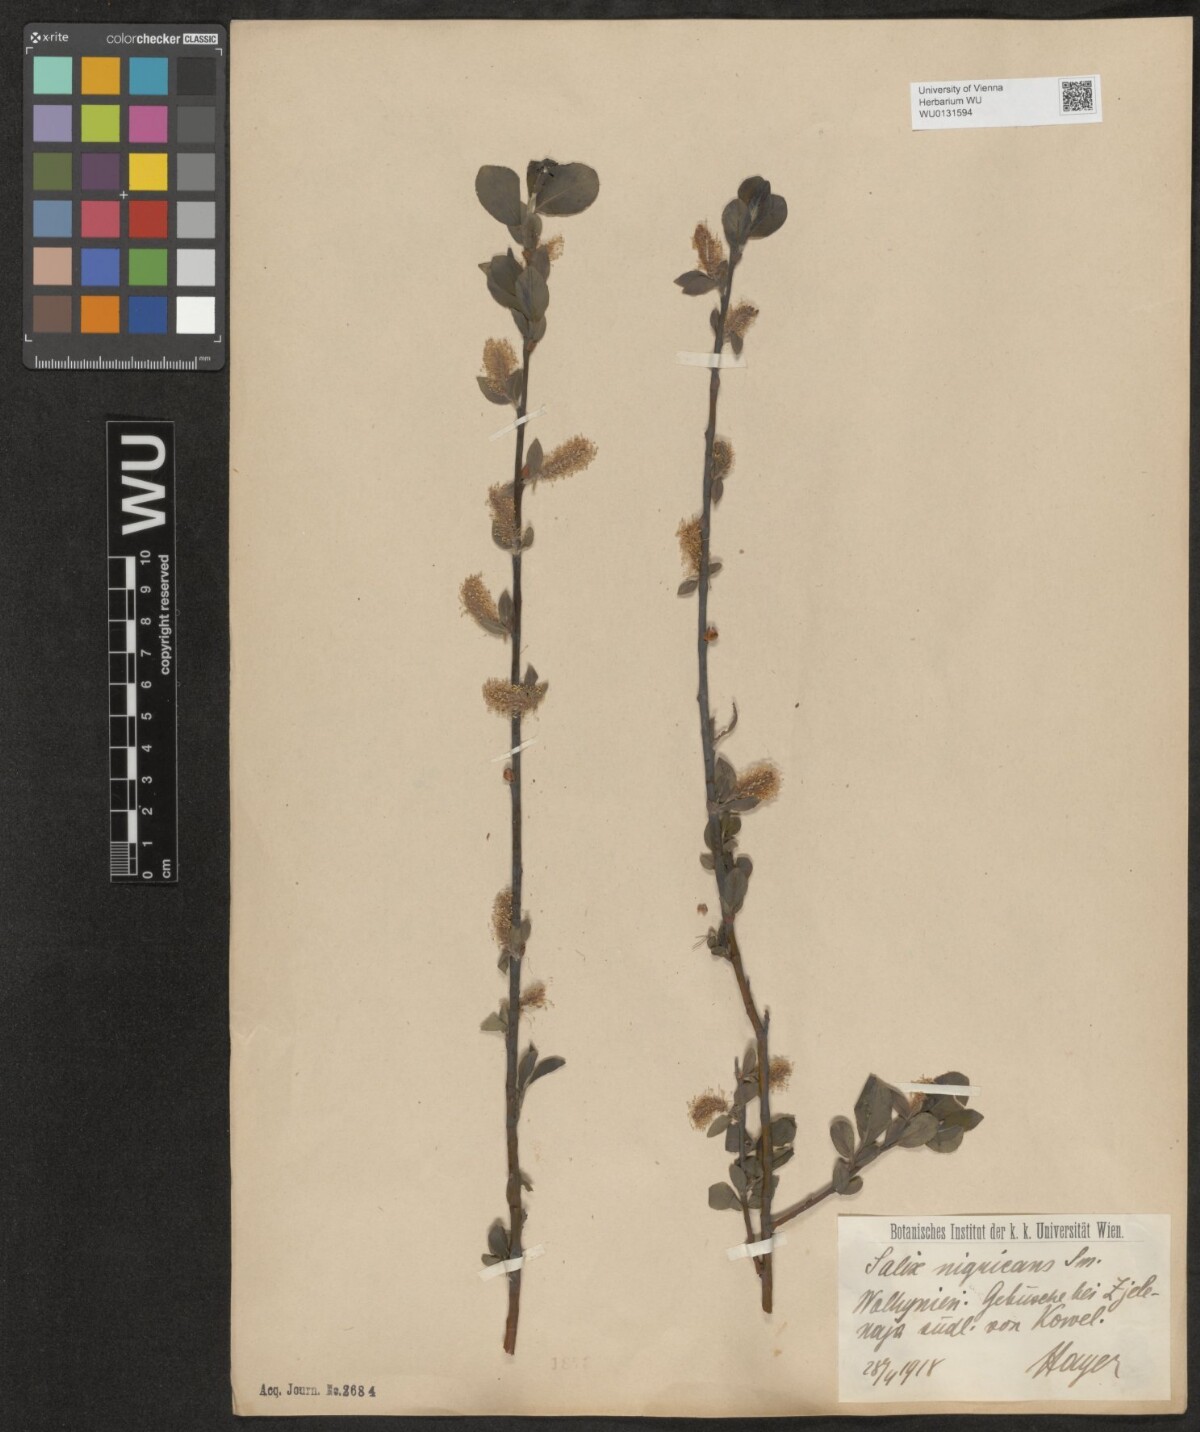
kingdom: Plantae
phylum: Tracheophyta
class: Magnoliopsida
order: Malpighiales
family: Salicaceae
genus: Salix
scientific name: Salix myrsinifolia
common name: Dark-leaved willow
